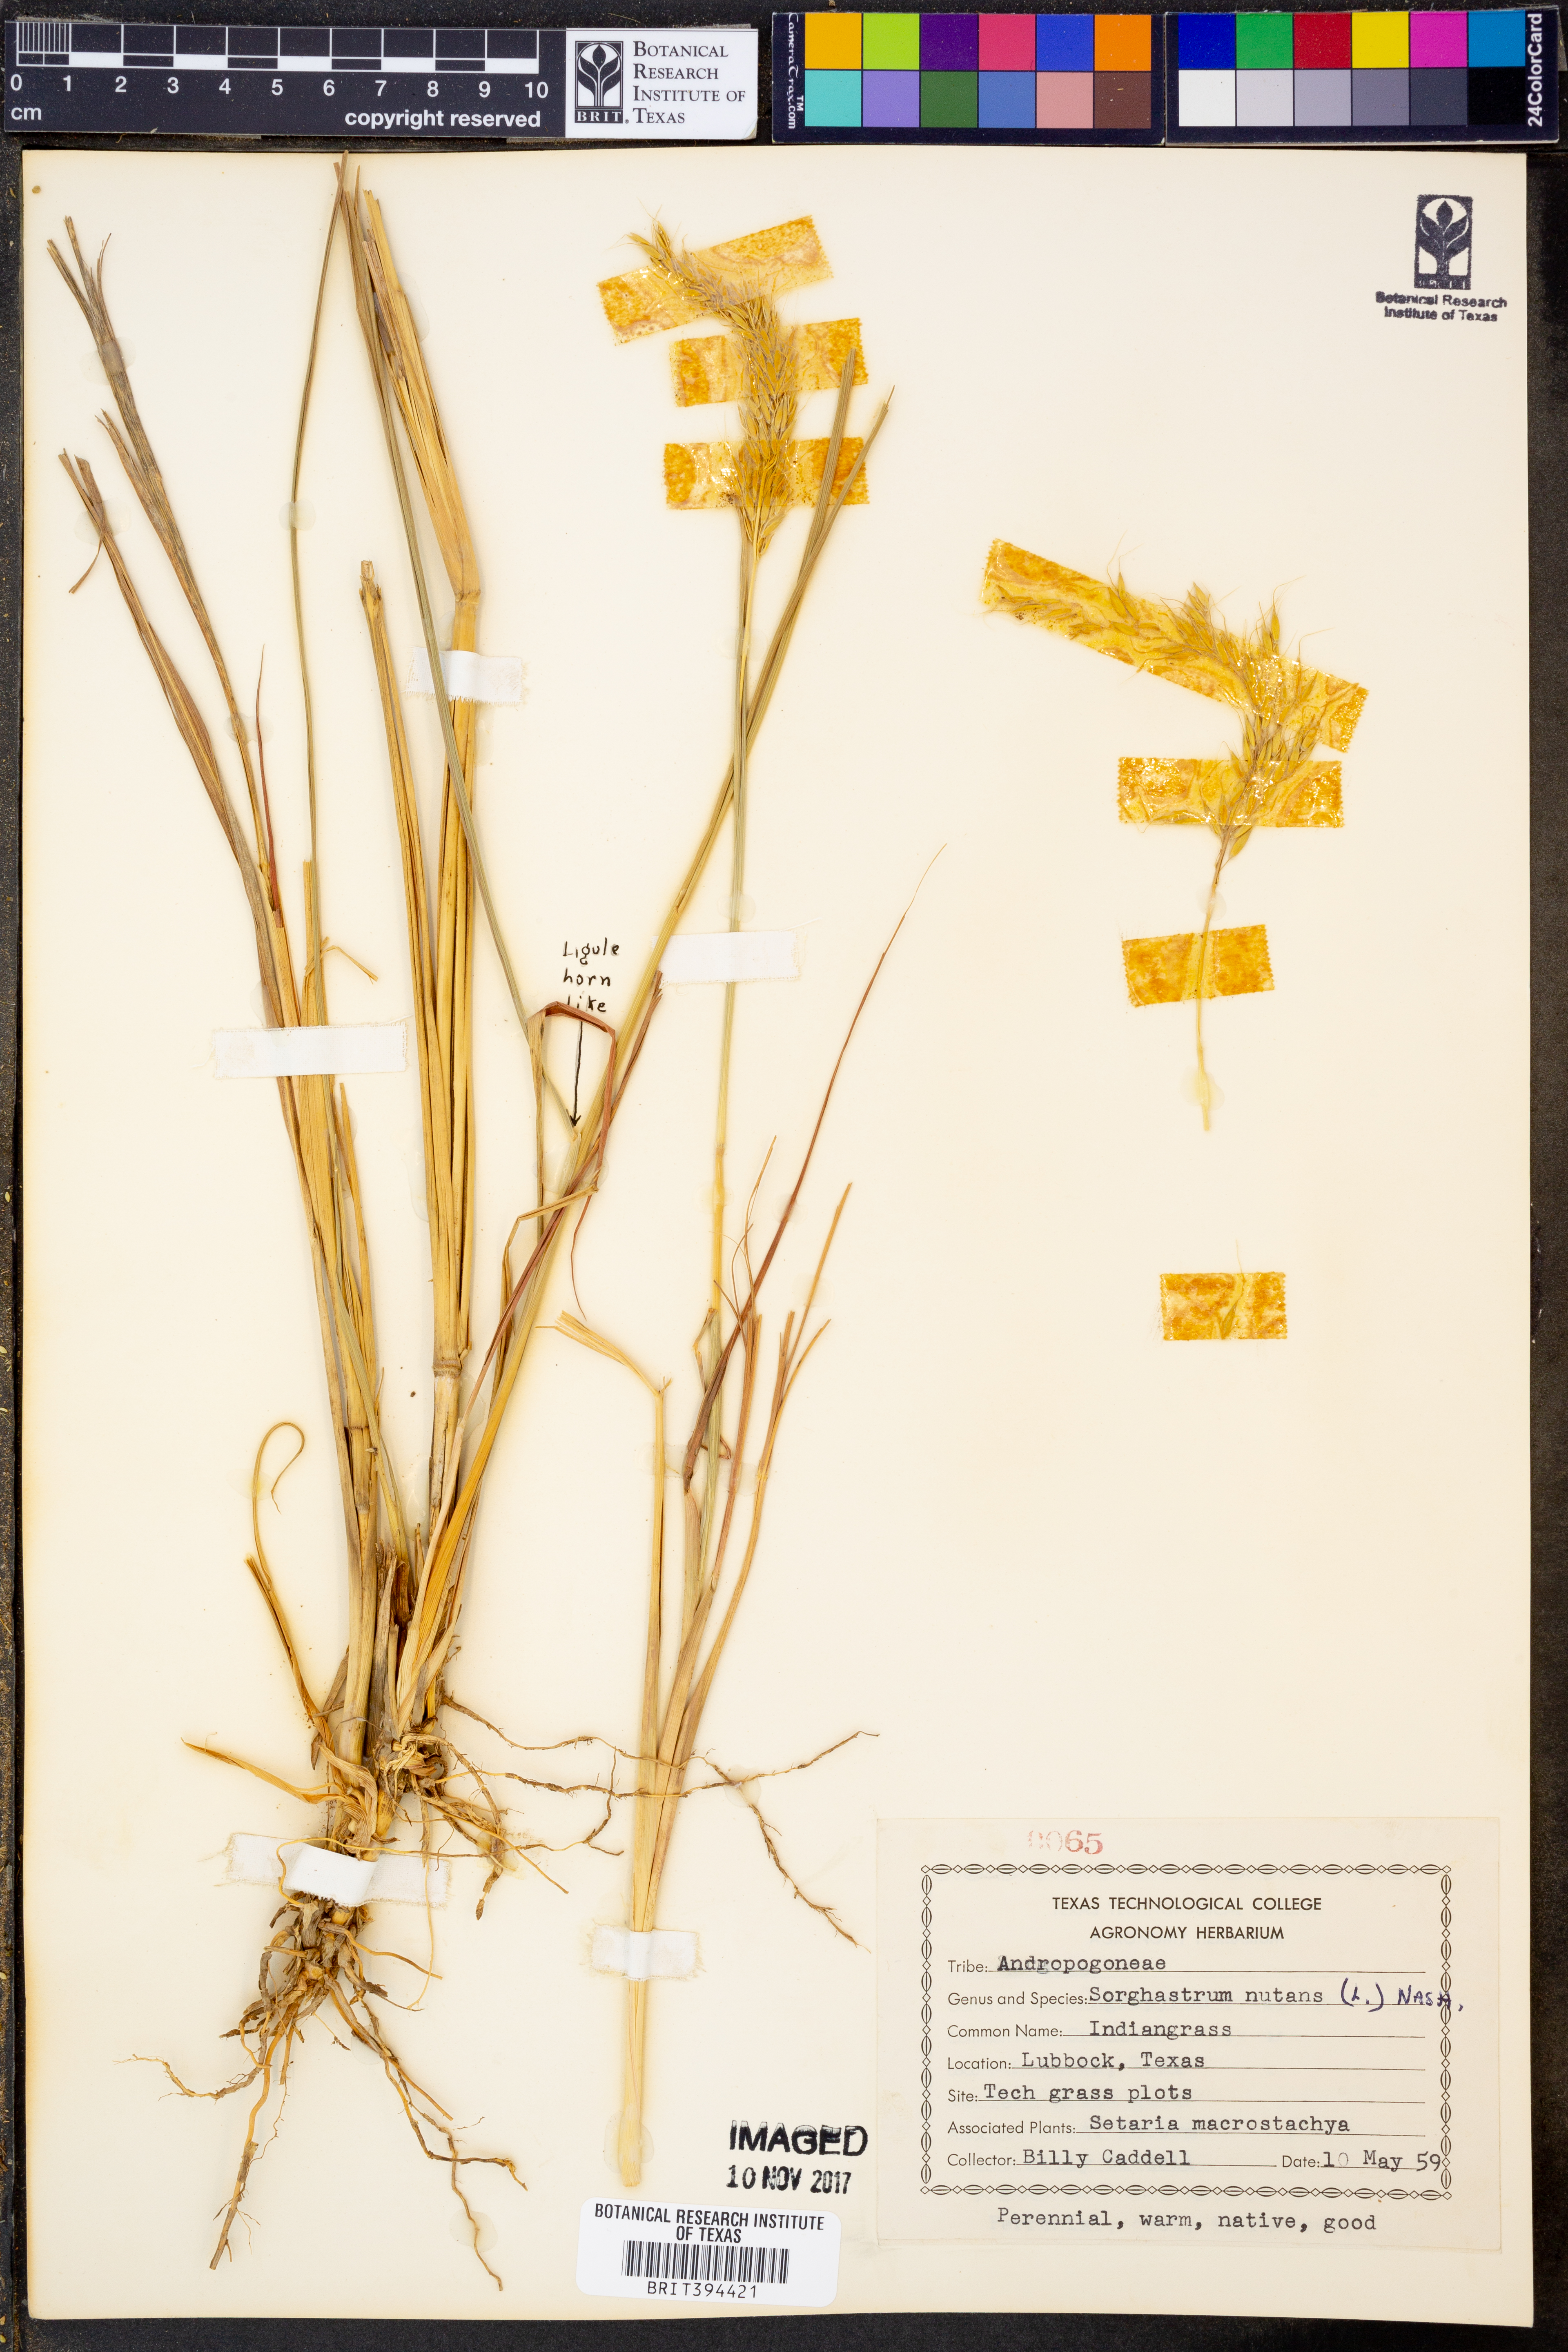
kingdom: Plantae
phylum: Tracheophyta
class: Liliopsida
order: Poales
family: Poaceae
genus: Sorghastrum
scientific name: Sorghastrum nutans
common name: Indian grass
